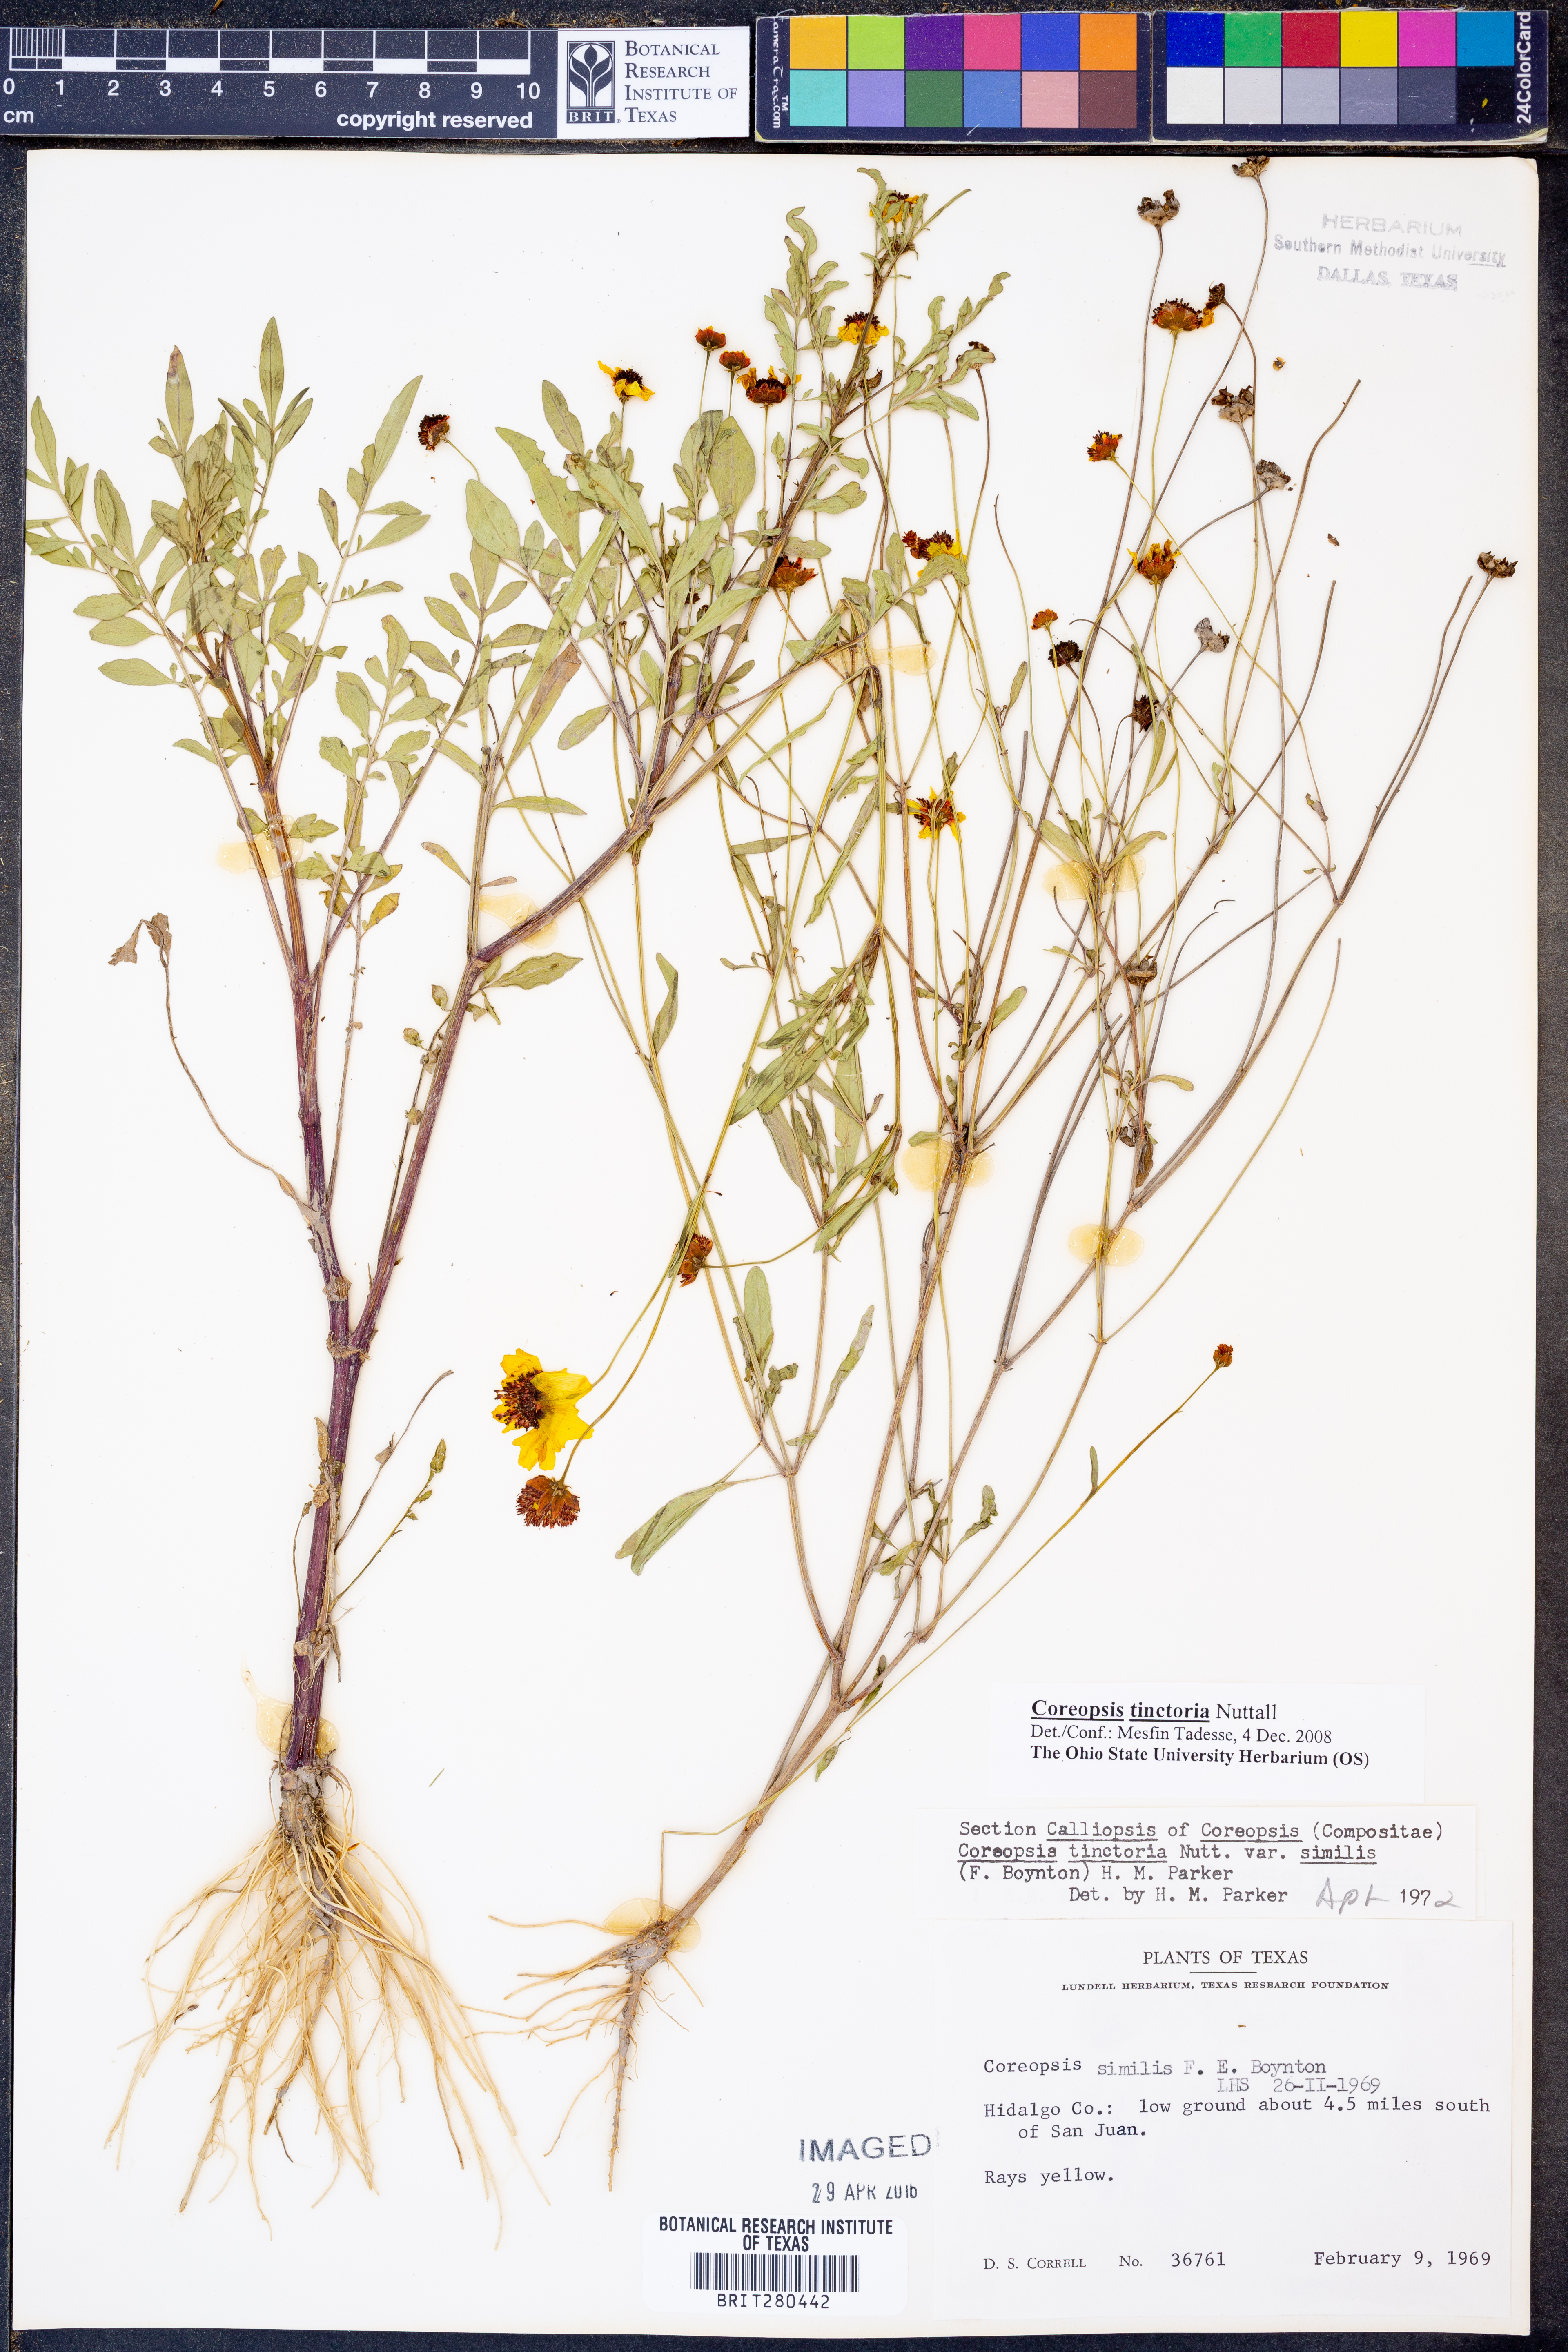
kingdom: Plantae
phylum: Tracheophyta
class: Magnoliopsida
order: Asterales
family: Asteraceae
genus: Coreopsis
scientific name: Coreopsis tinctoria
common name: Garden tickseed
